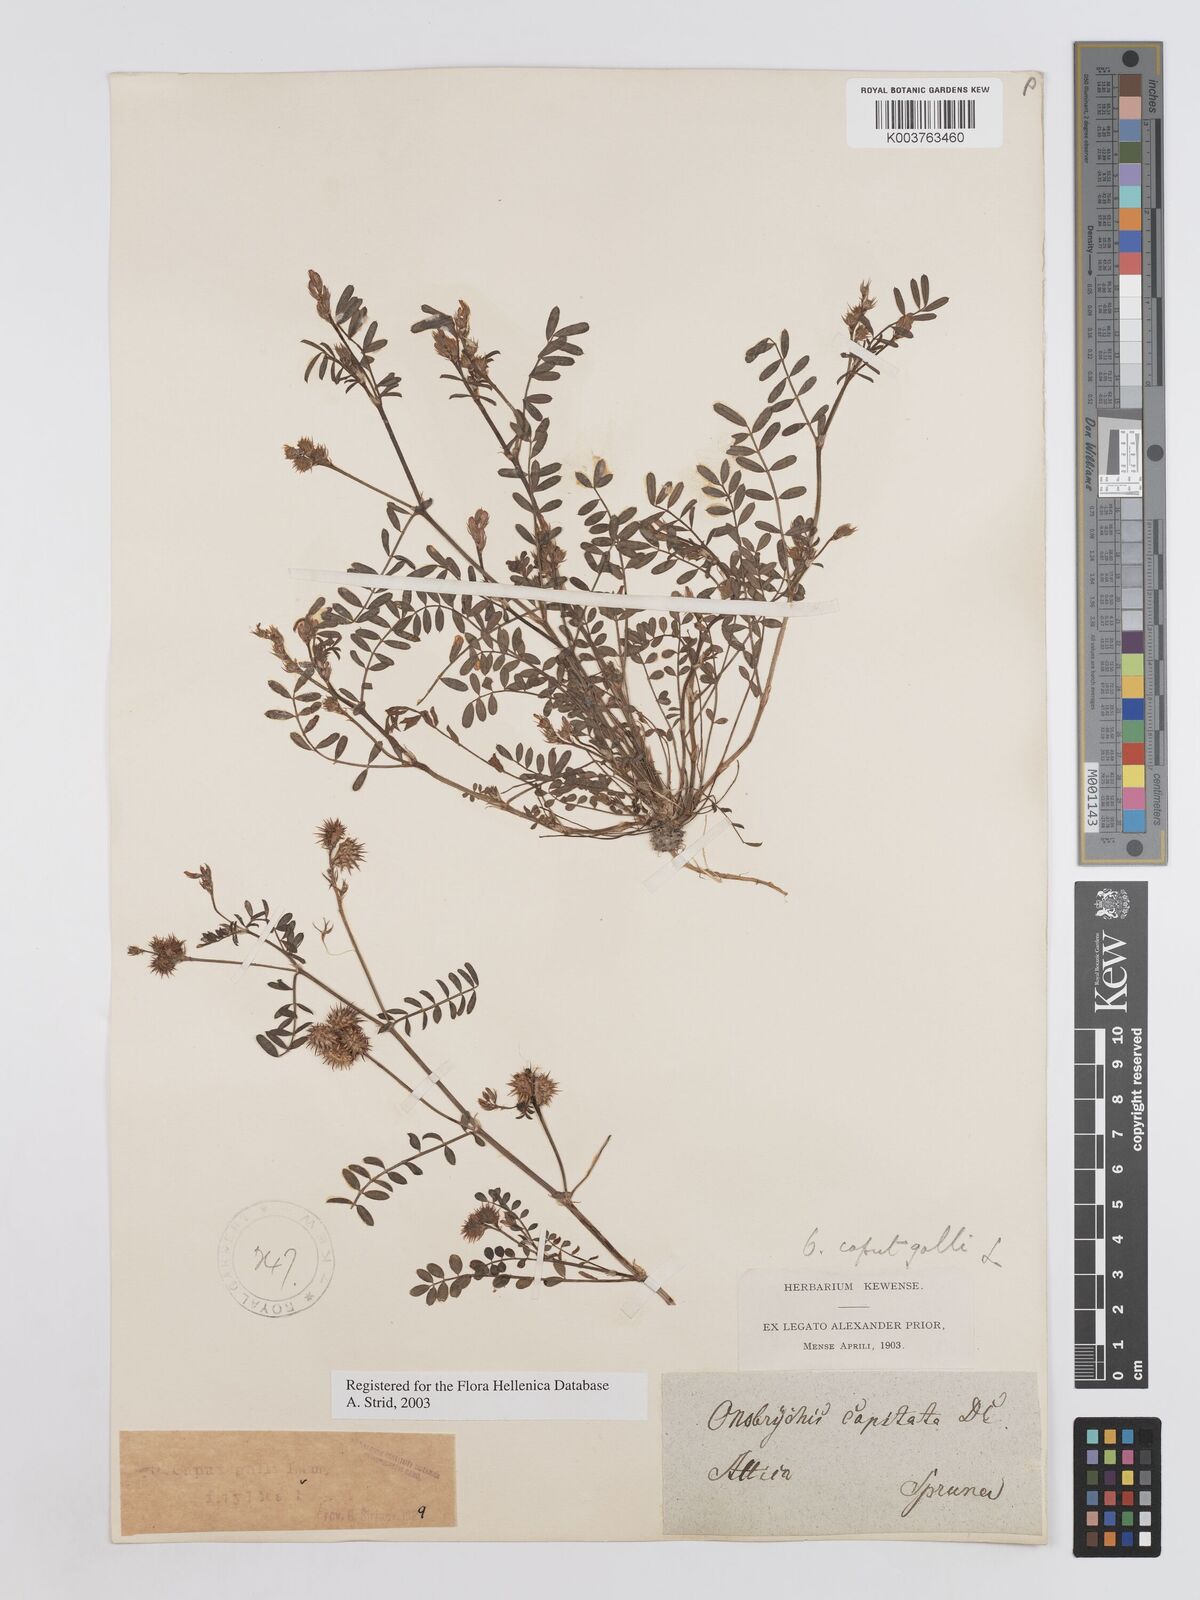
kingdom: Plantae
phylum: Tracheophyta
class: Magnoliopsida
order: Fabales
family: Fabaceae
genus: Onobrychis
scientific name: Onobrychis caput-galli
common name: Cockscomb sainfoin
